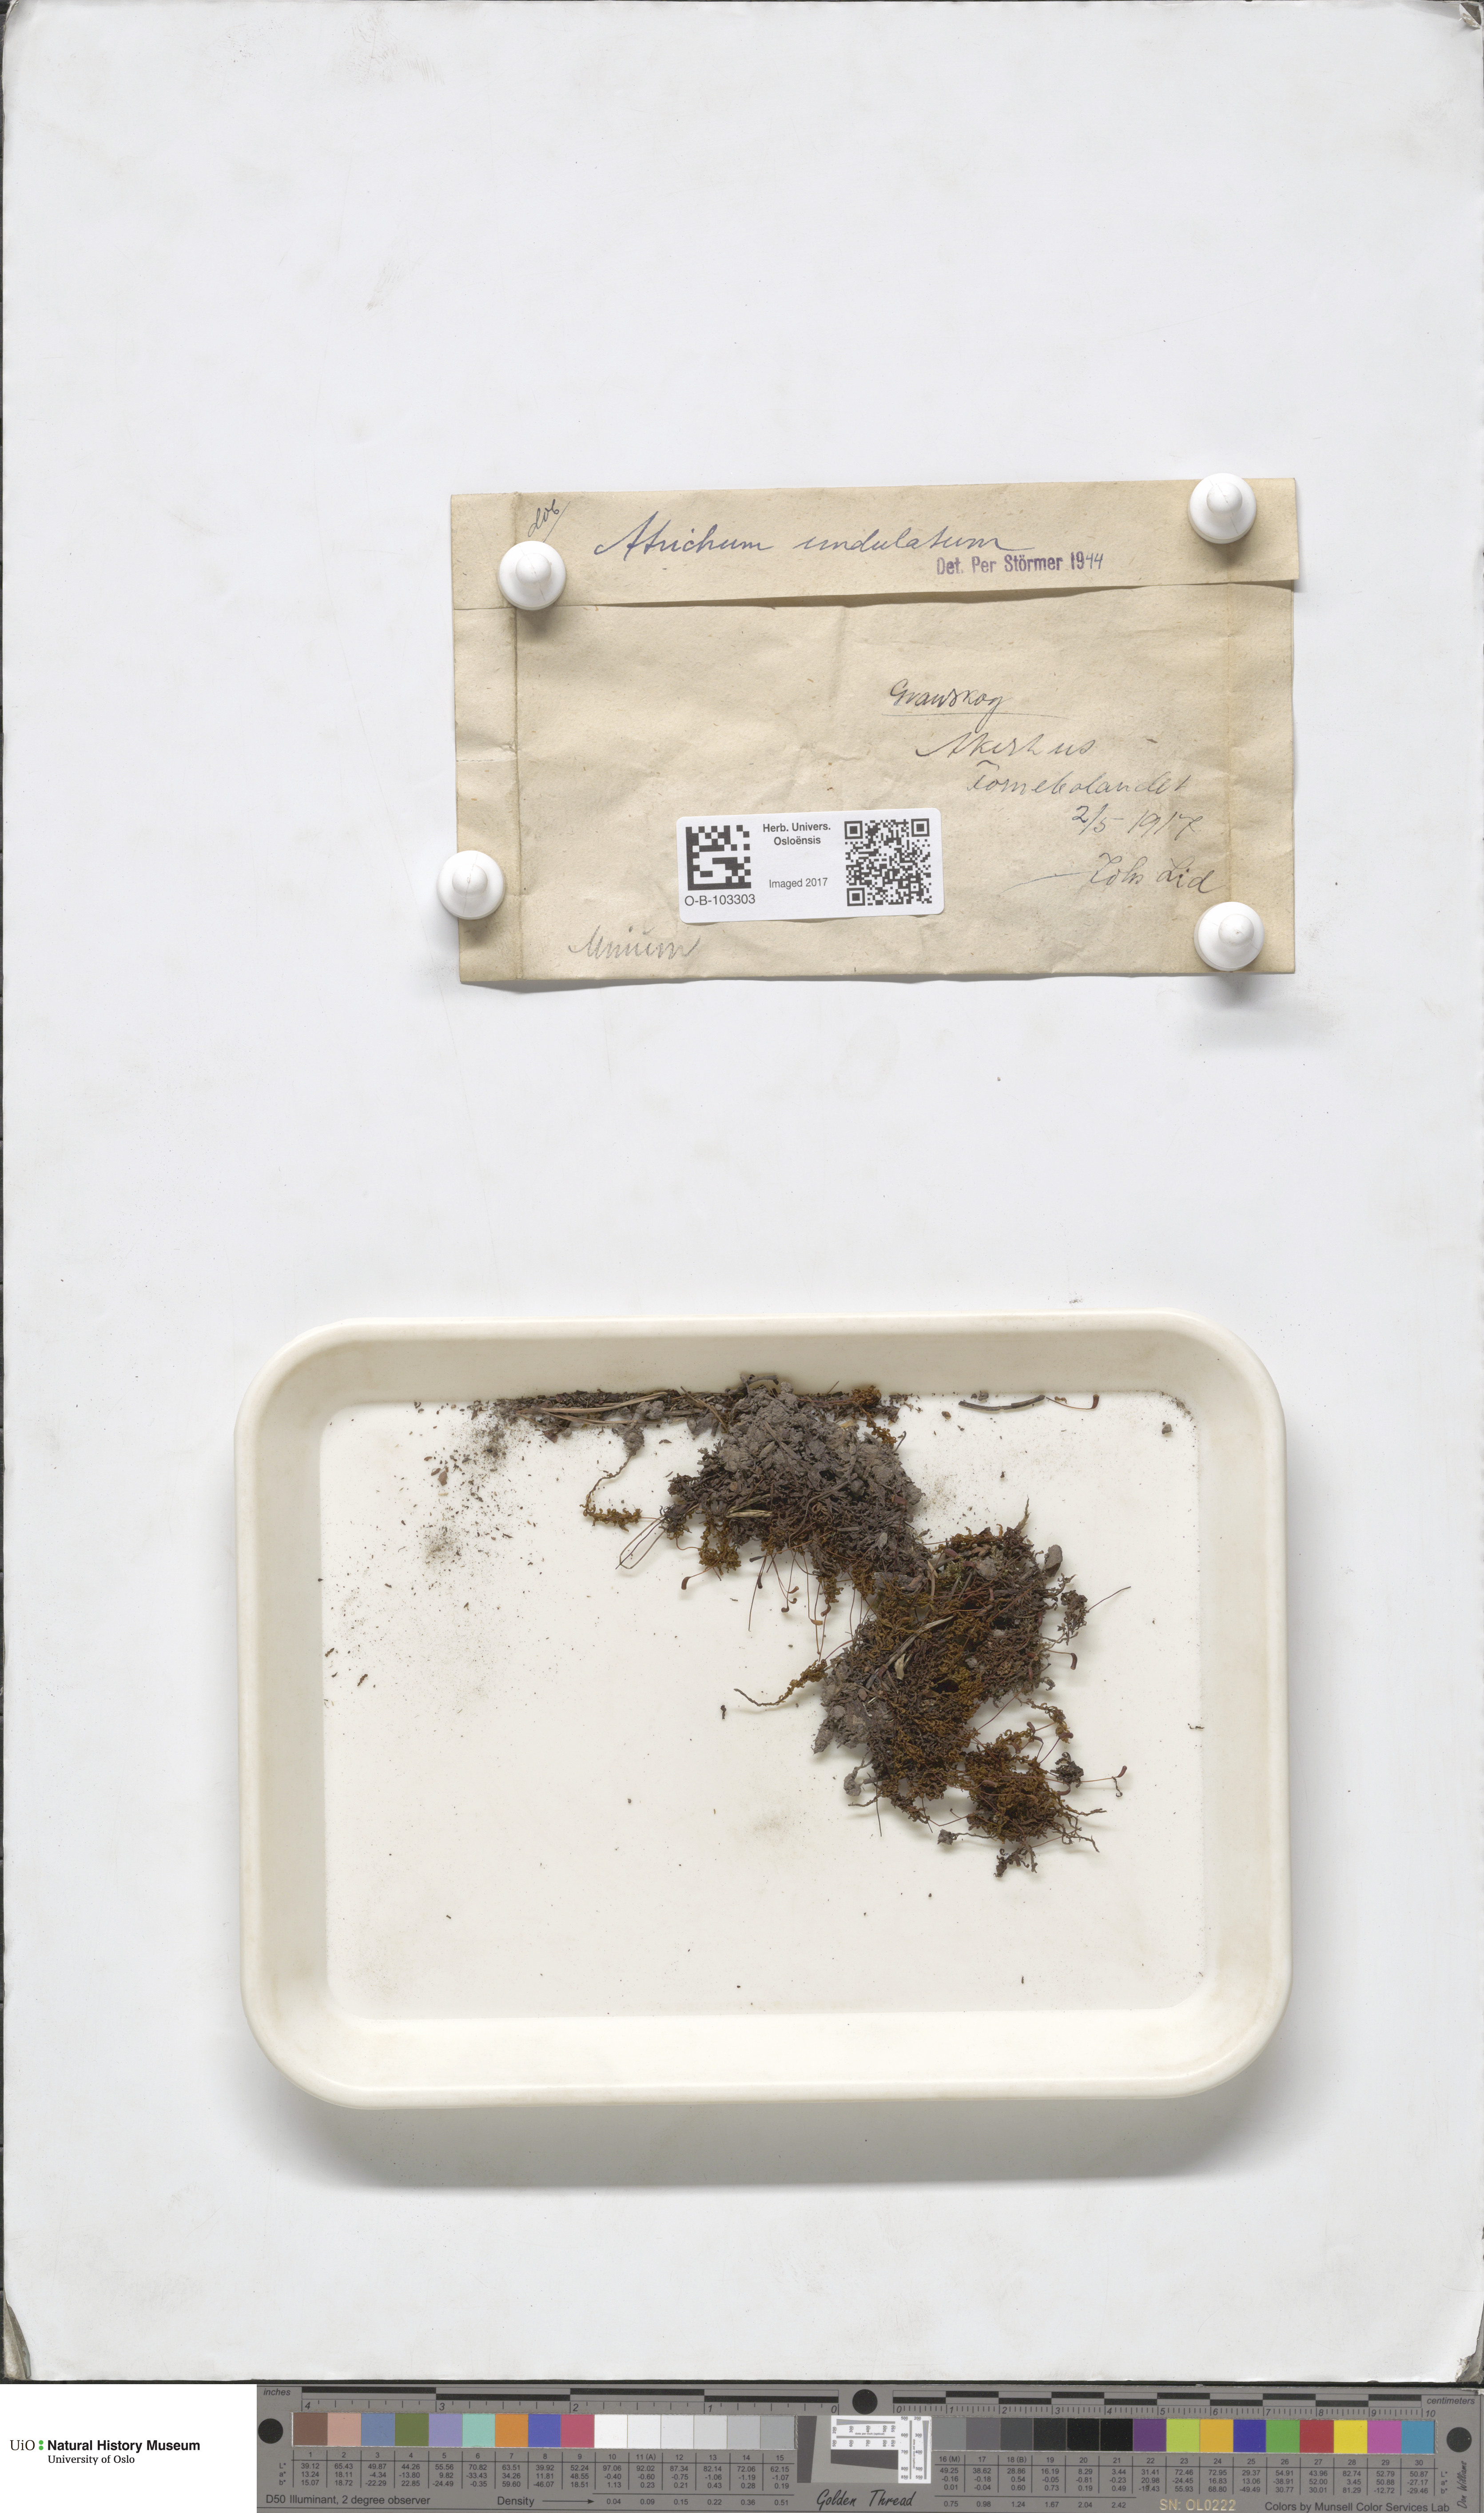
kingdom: Plantae
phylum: Bryophyta
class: Polytrichopsida
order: Polytrichales
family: Polytrichaceae
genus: Atrichum
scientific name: Atrichum undulatum
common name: Common smoothcap
